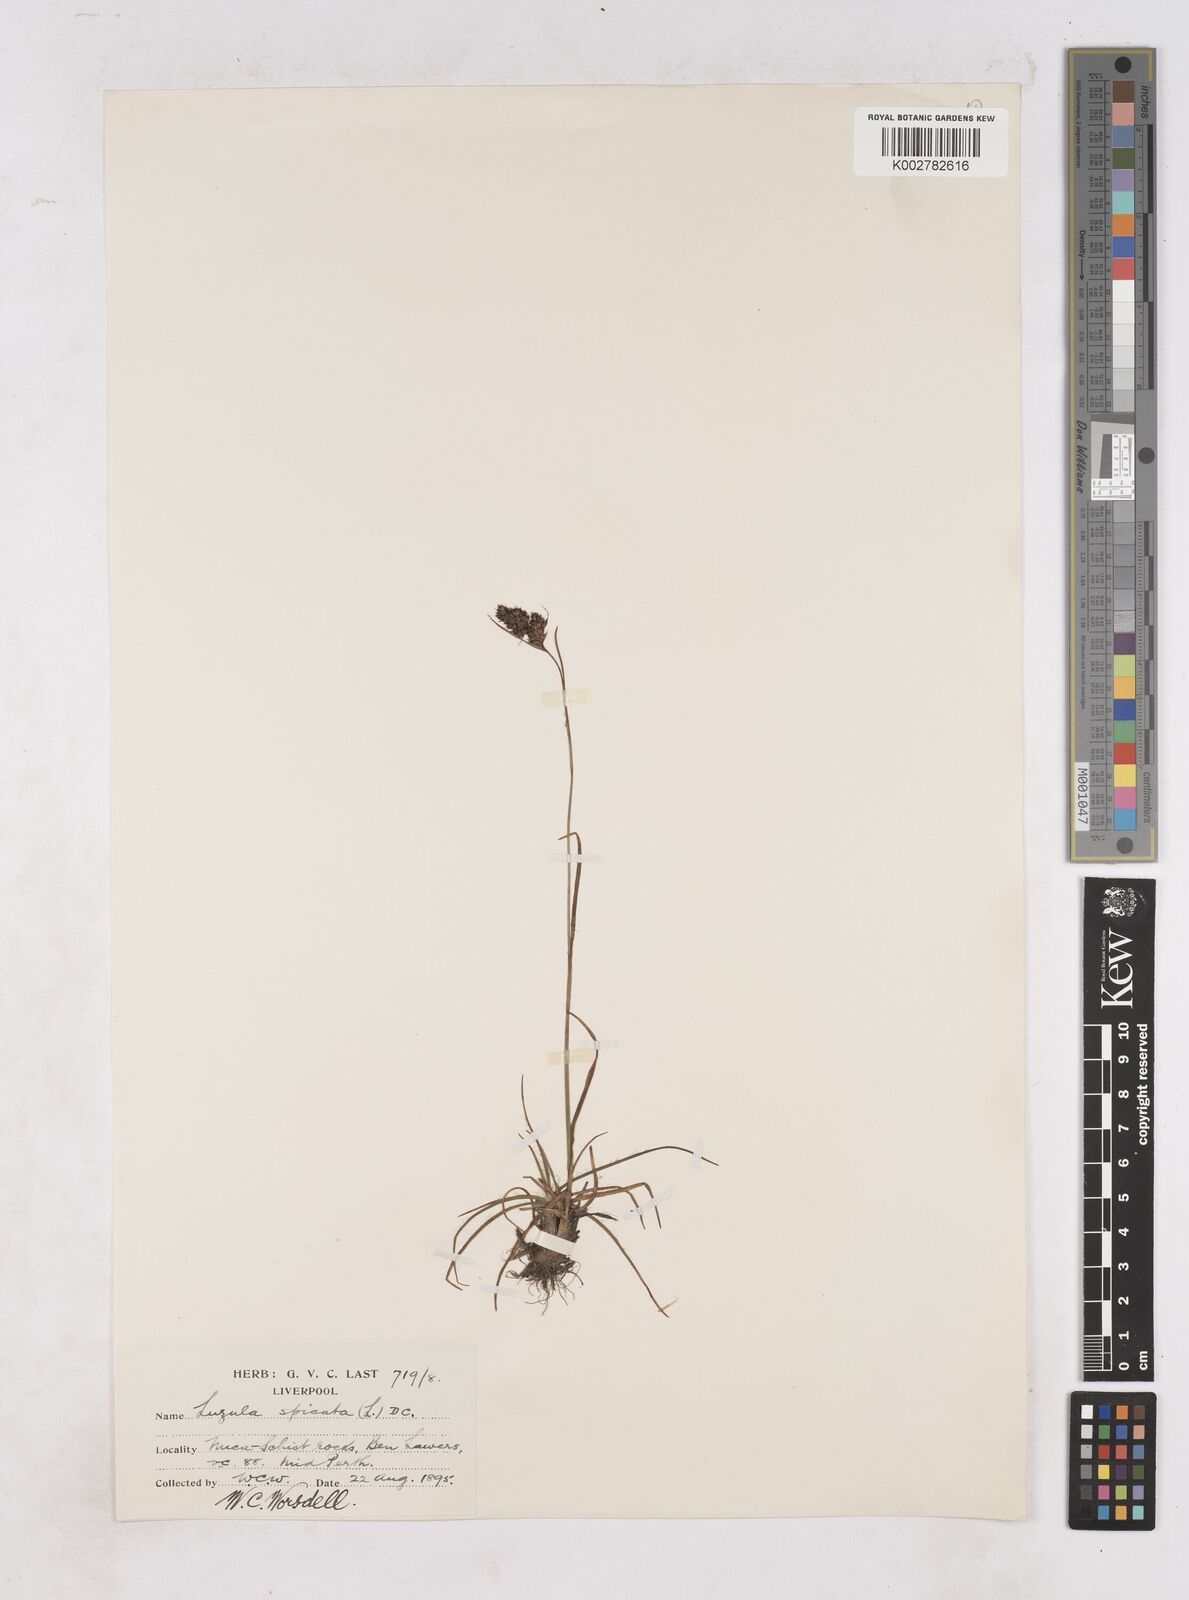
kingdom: Plantae
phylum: Tracheophyta
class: Liliopsida
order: Poales
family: Juncaceae
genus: Luzula
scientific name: Luzula spicata
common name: Spiked wood-rush
